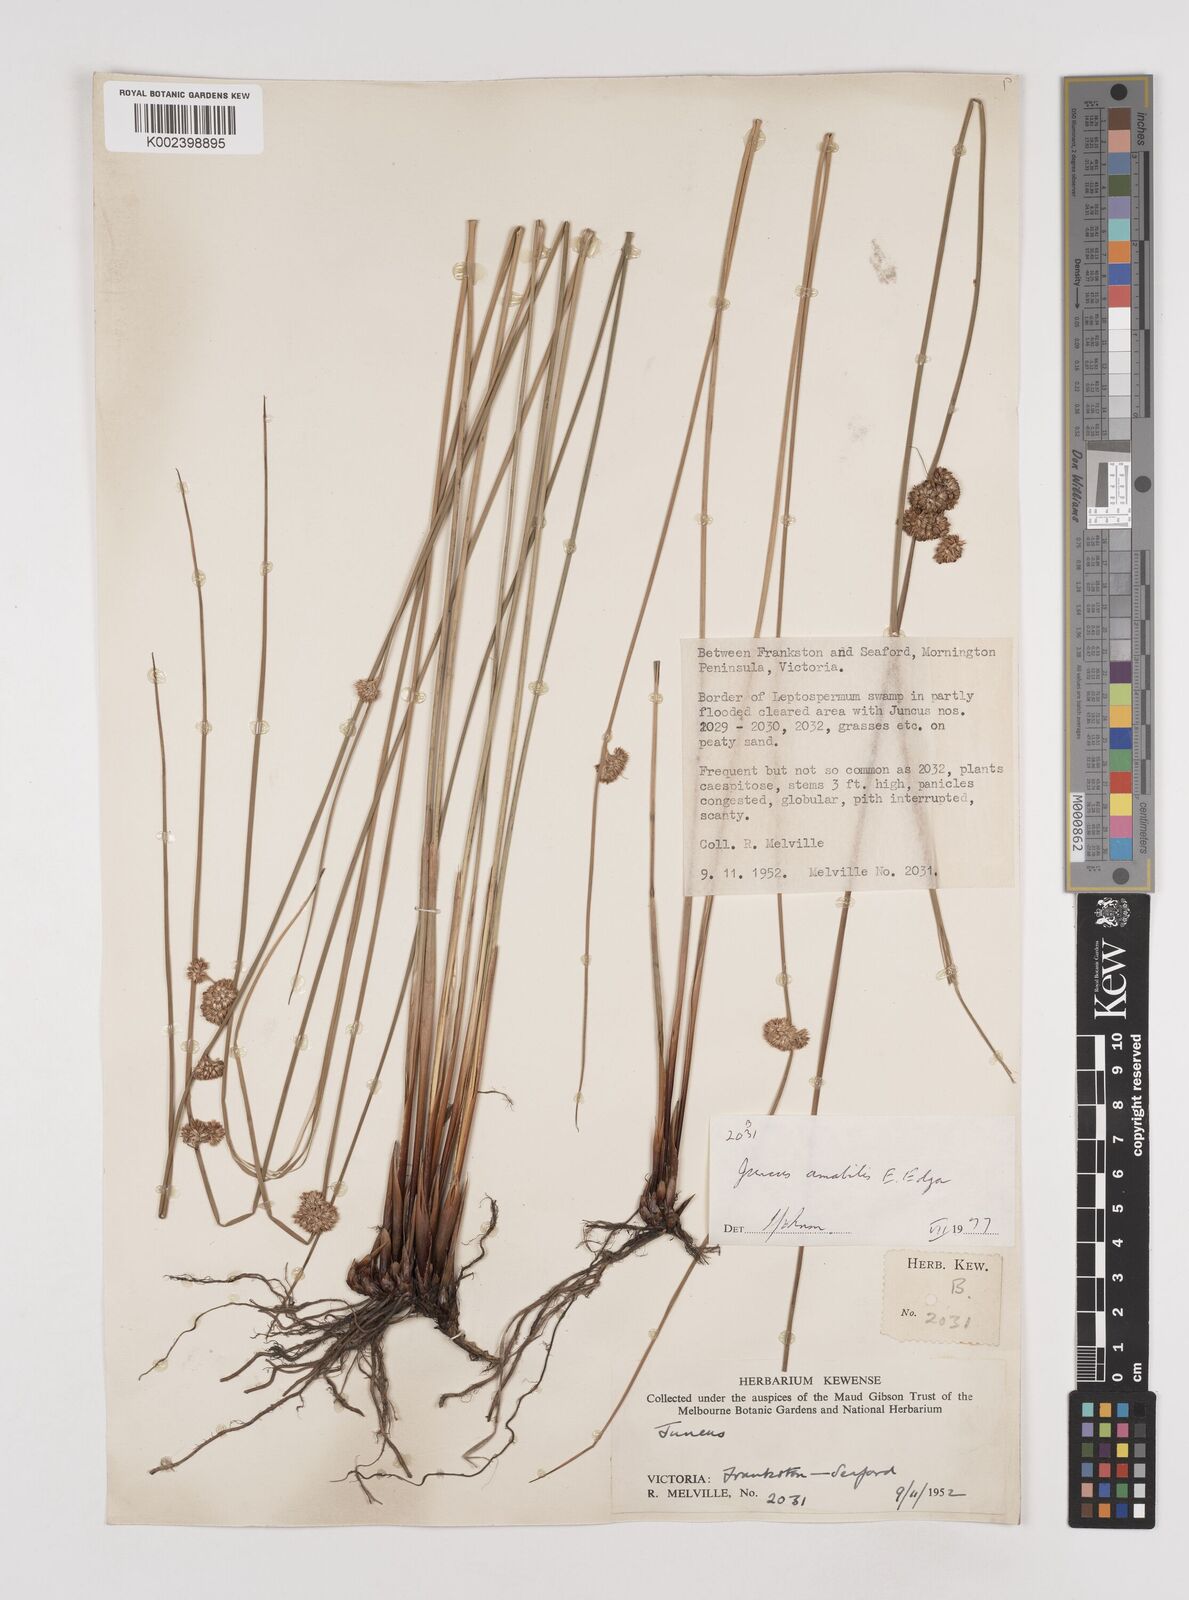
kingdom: Plantae
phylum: Tracheophyta
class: Liliopsida
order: Poales
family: Juncaceae
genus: Juncus
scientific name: Juncus amabilis
